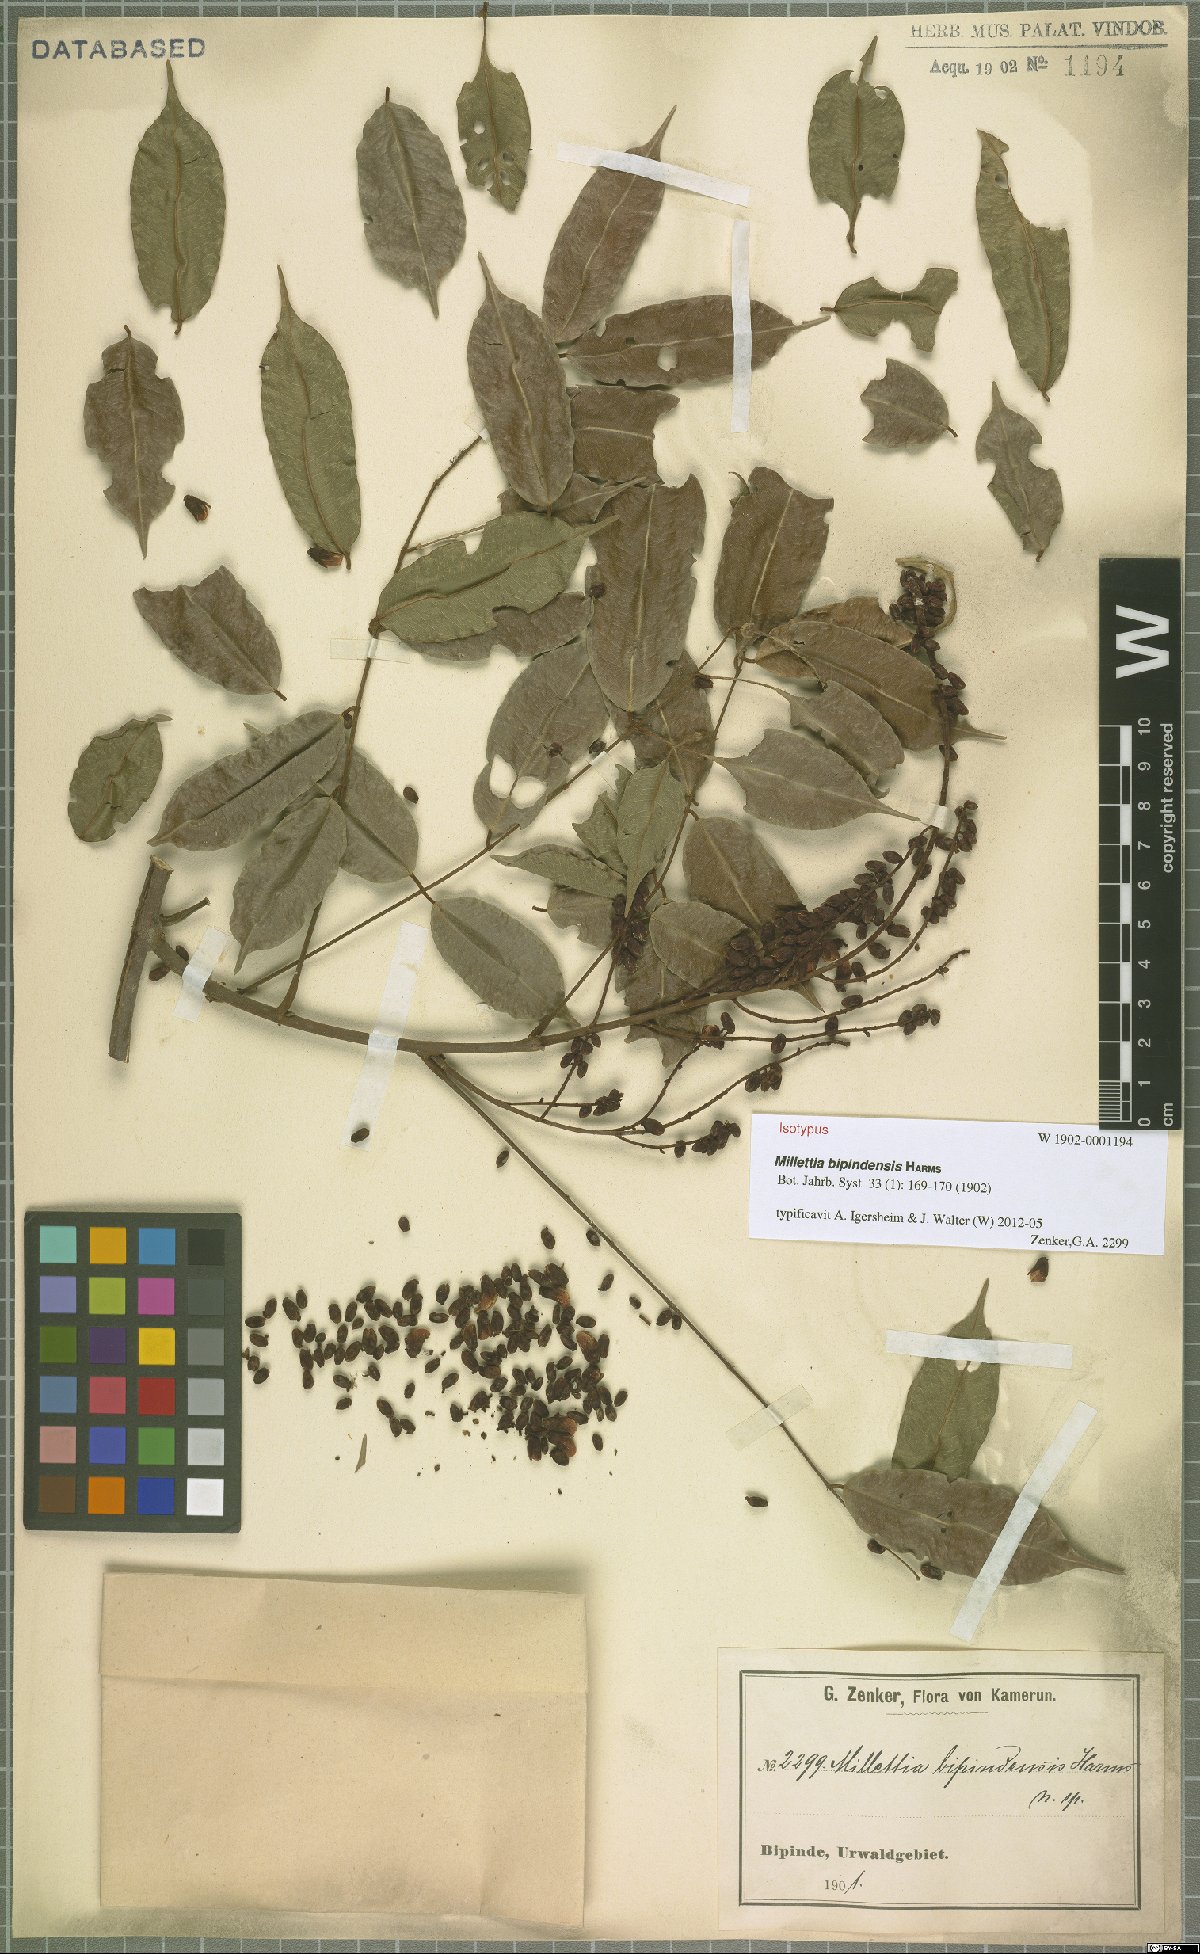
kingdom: Plantae
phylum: Tracheophyta
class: Magnoliopsida
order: Fabales
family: Fabaceae
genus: Millettia
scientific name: Millettia bipindensis
